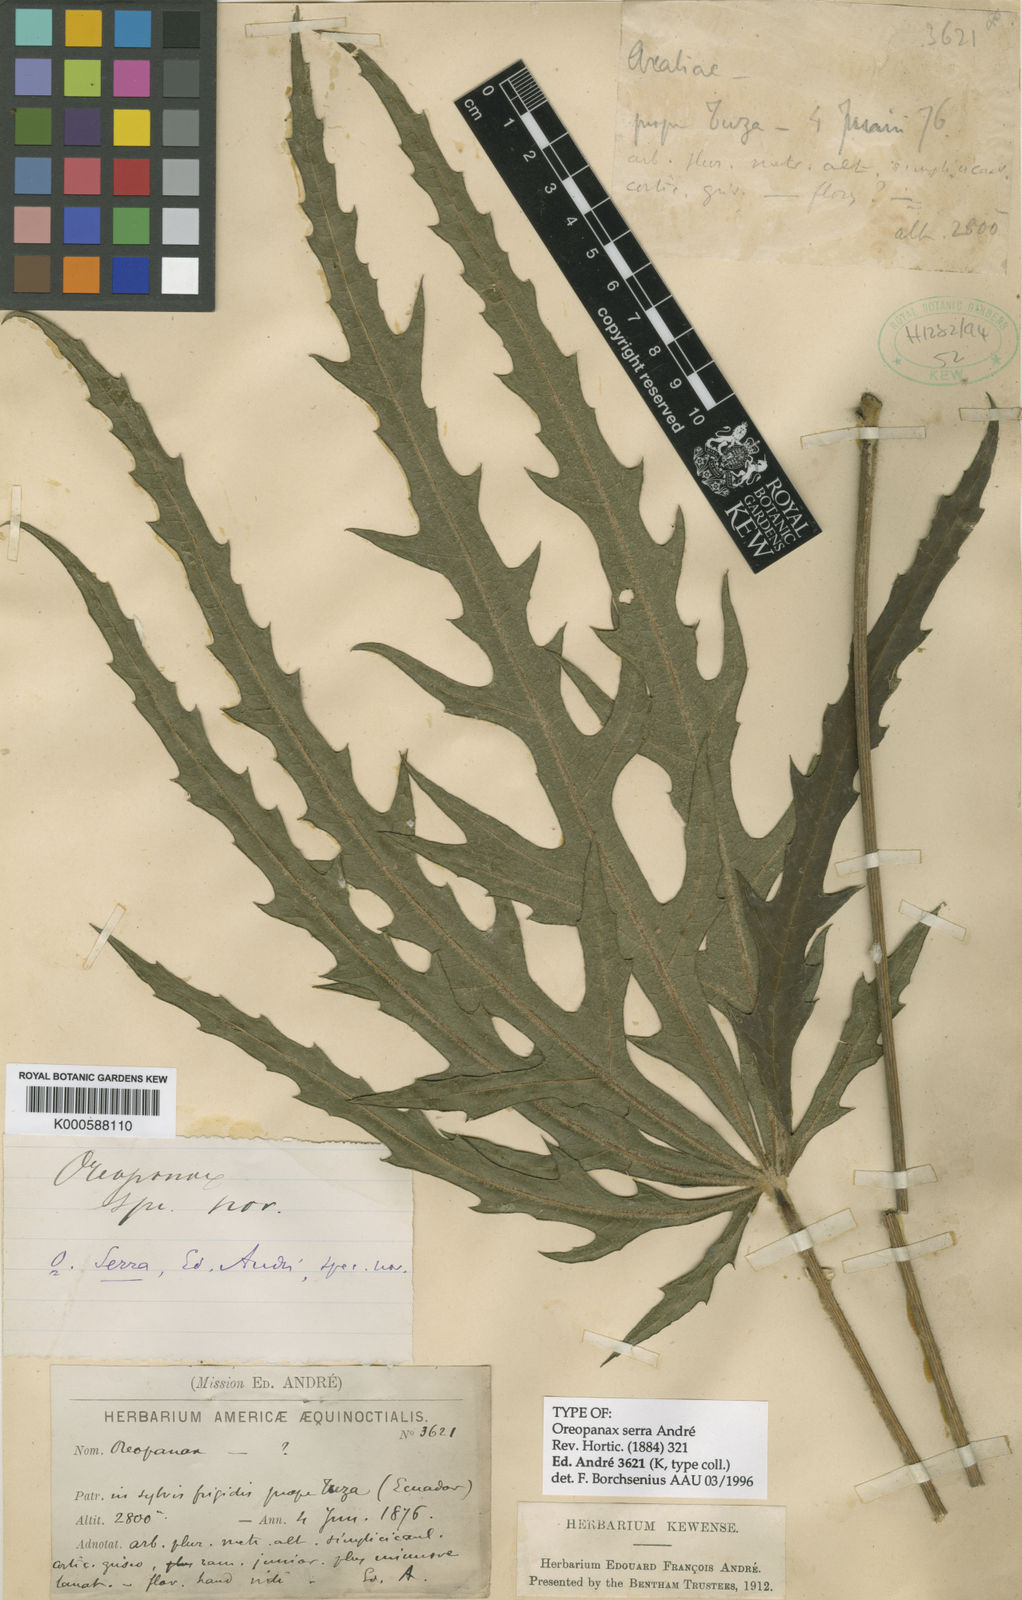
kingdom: Plantae
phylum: Tracheophyta
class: Magnoliopsida
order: Apiales
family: Araliaceae
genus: Oreopanax
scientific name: Oreopanax
